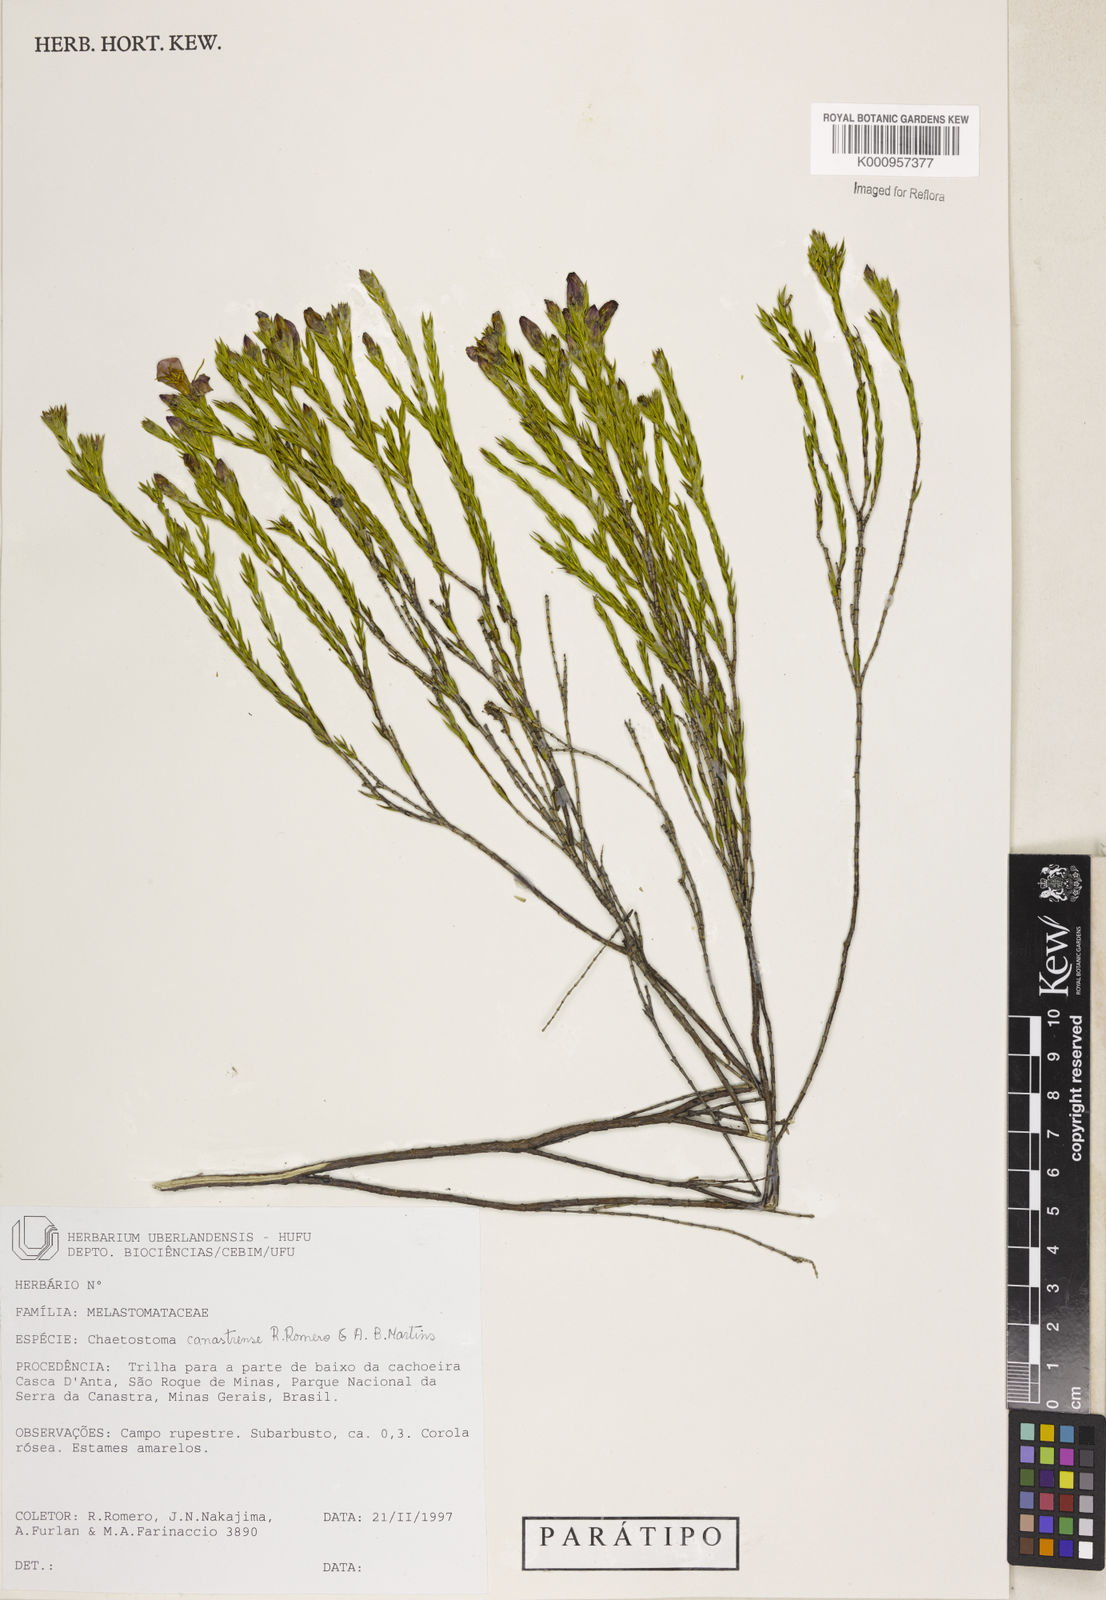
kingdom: Plantae
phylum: Tracheophyta
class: Magnoliopsida
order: Myrtales
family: Melastomataceae
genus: Microlicia
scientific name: Microlicia fastigiata
